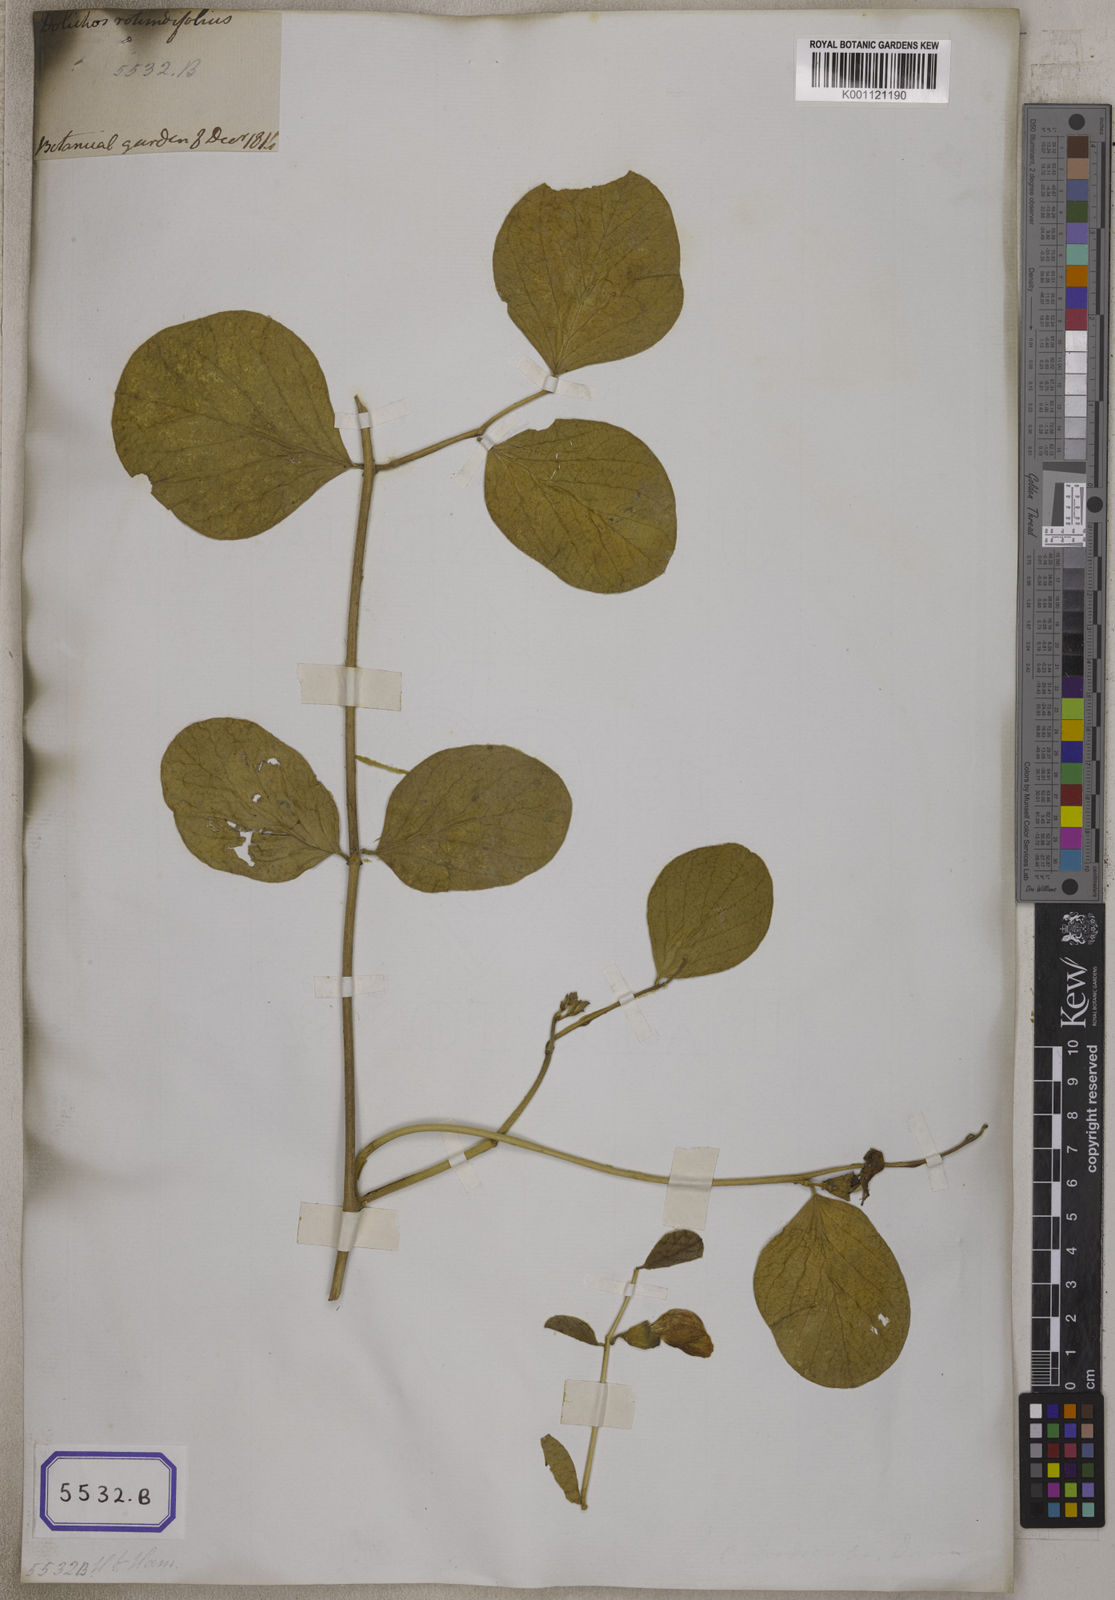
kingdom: Plantae
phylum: Tracheophyta
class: Magnoliopsida
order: Fabales
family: Fabaceae
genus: Canavalia
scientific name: Canavalia rosea
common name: Beach-bean
